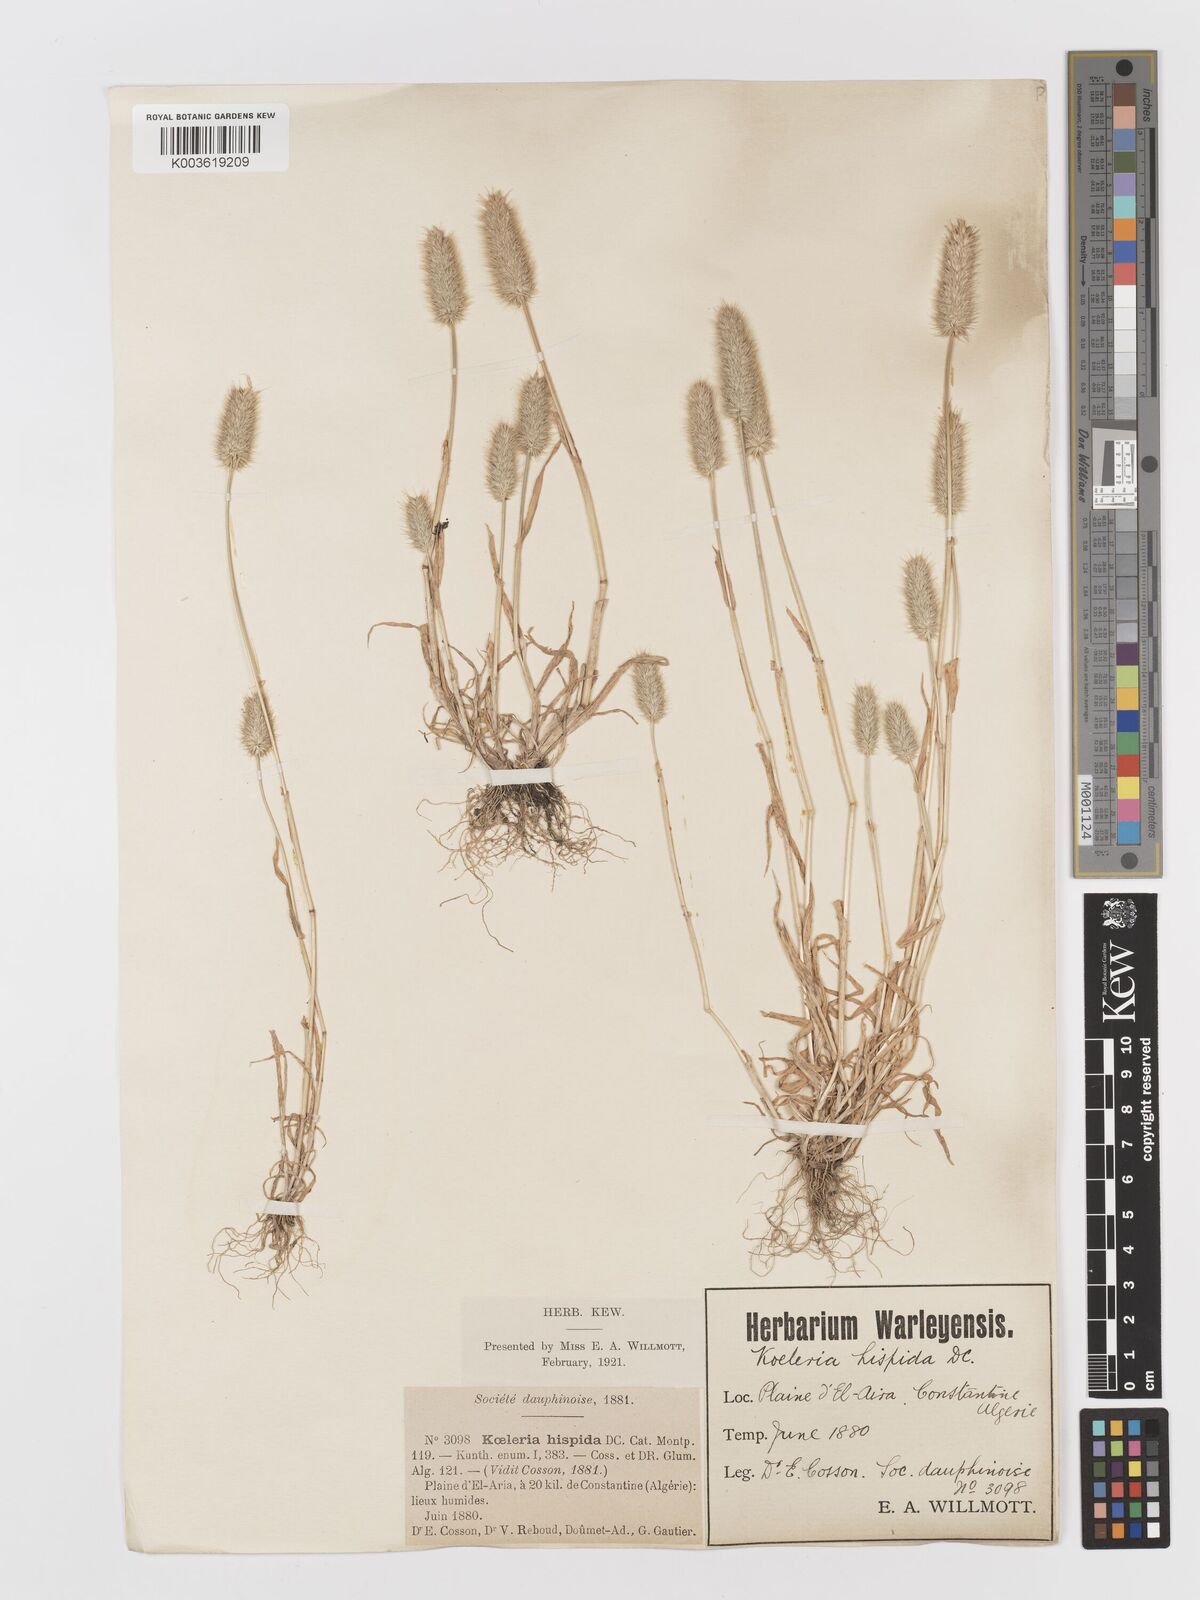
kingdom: Plantae
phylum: Tracheophyta
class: Liliopsida
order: Poales
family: Poaceae
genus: Rostraria
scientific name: Rostraria hispida
